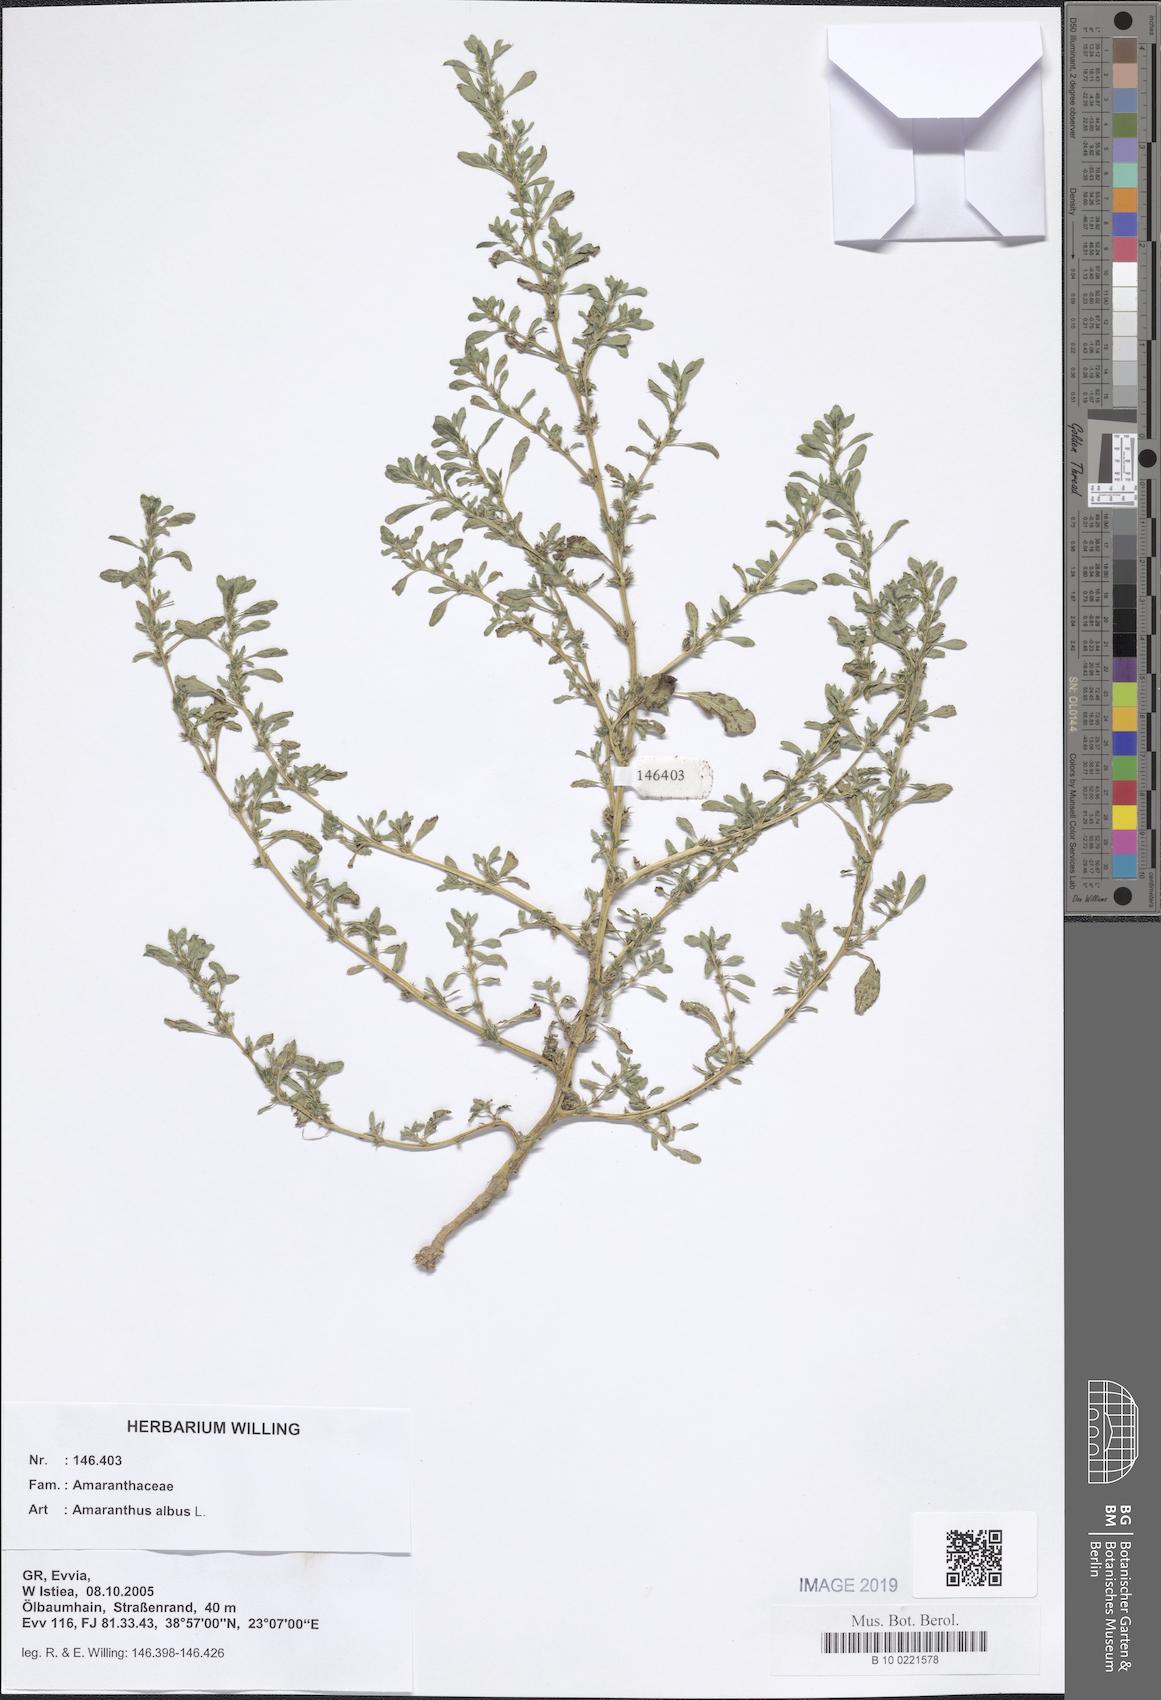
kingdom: Plantae
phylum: Tracheophyta
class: Magnoliopsida
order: Caryophyllales
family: Amaranthaceae
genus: Amaranthus
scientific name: Amaranthus albus
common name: White pigweed
